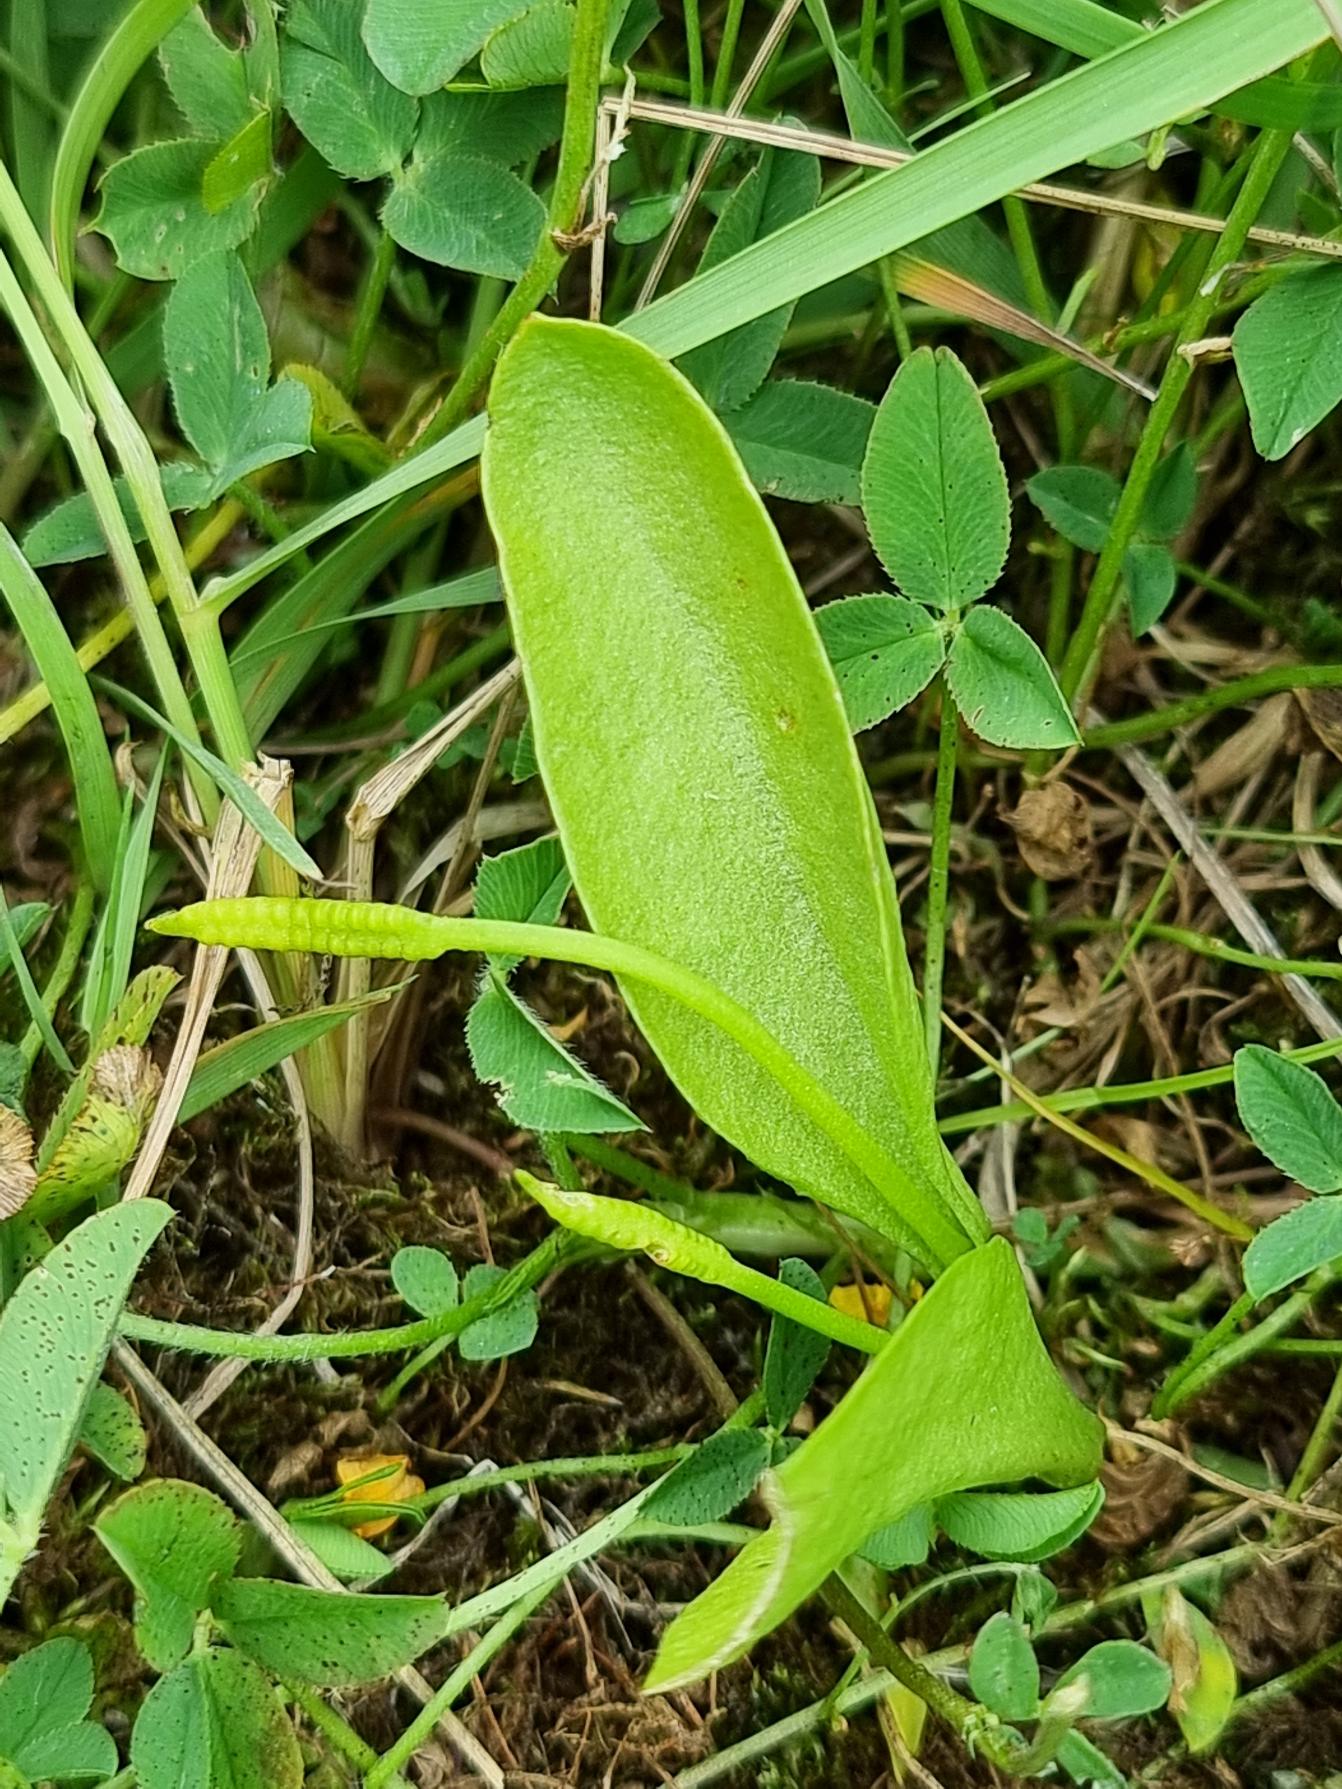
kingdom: Plantae
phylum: Tracheophyta
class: Polypodiopsida
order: Ophioglossales
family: Ophioglossaceae
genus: Ophioglossum
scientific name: Ophioglossum vulgatum
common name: Slangetunge
